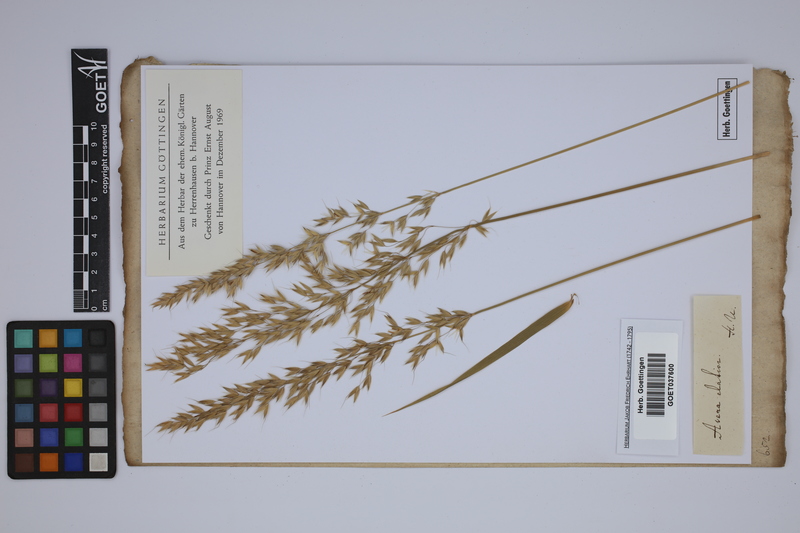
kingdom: Plantae
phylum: Tracheophyta
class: Liliopsida
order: Poales
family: Poaceae
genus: Arrhenatherum
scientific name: Arrhenatherum elatius
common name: Tall oatgrass
